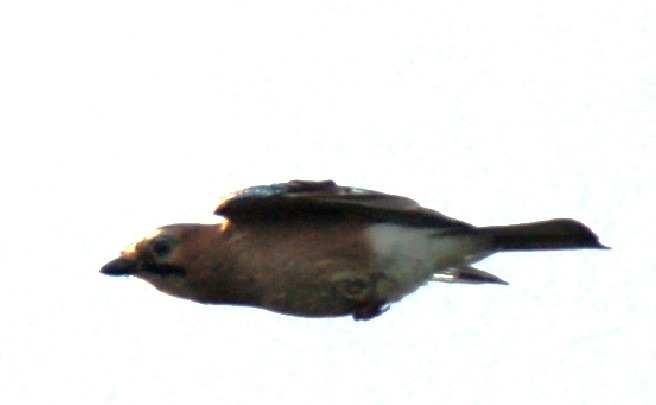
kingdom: Animalia
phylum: Chordata
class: Aves
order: Passeriformes
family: Corvidae
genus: Garrulus
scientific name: Garrulus glandarius
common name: Skovskade
